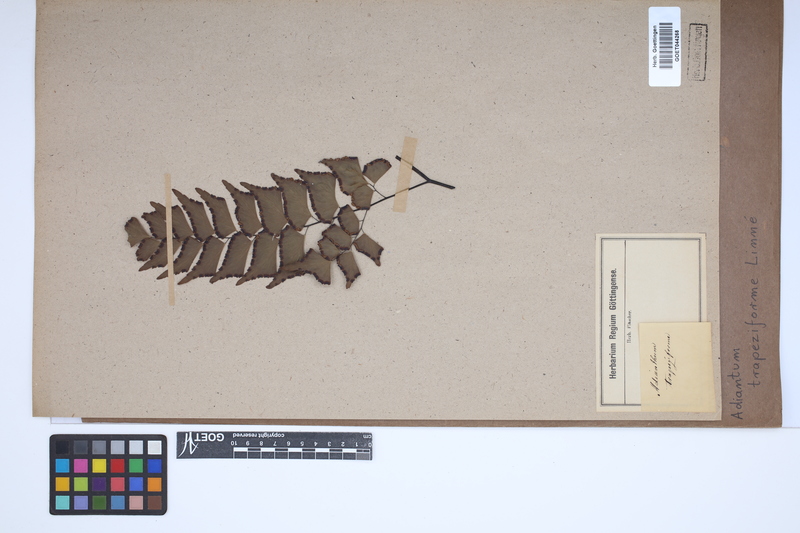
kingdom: Plantae
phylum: Tracheophyta
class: Polypodiopsida
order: Polypodiales
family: Pteridaceae
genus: Adiantum
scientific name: Adiantum trapeziforme
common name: Diamond maidenhair
